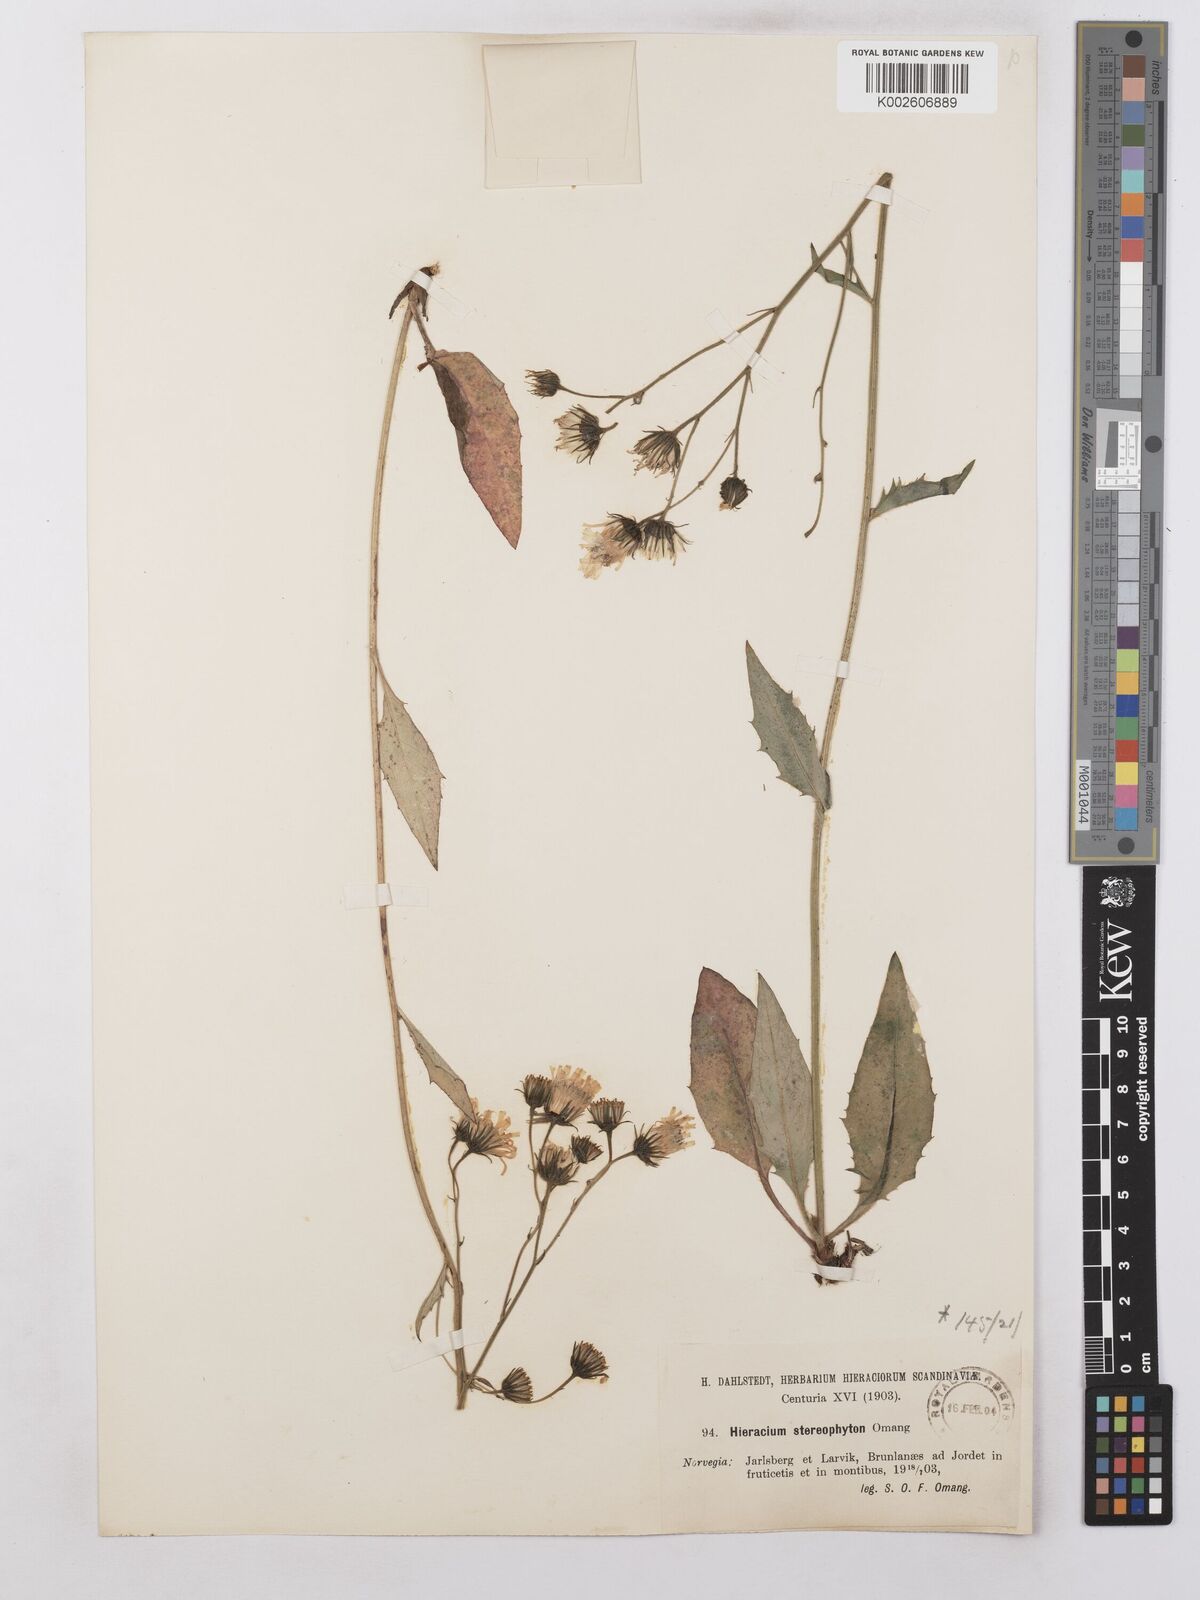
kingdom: Plantae
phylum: Tracheophyta
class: Magnoliopsida
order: Asterales
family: Asteraceae
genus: Hieracium
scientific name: Hieracium levicaule
